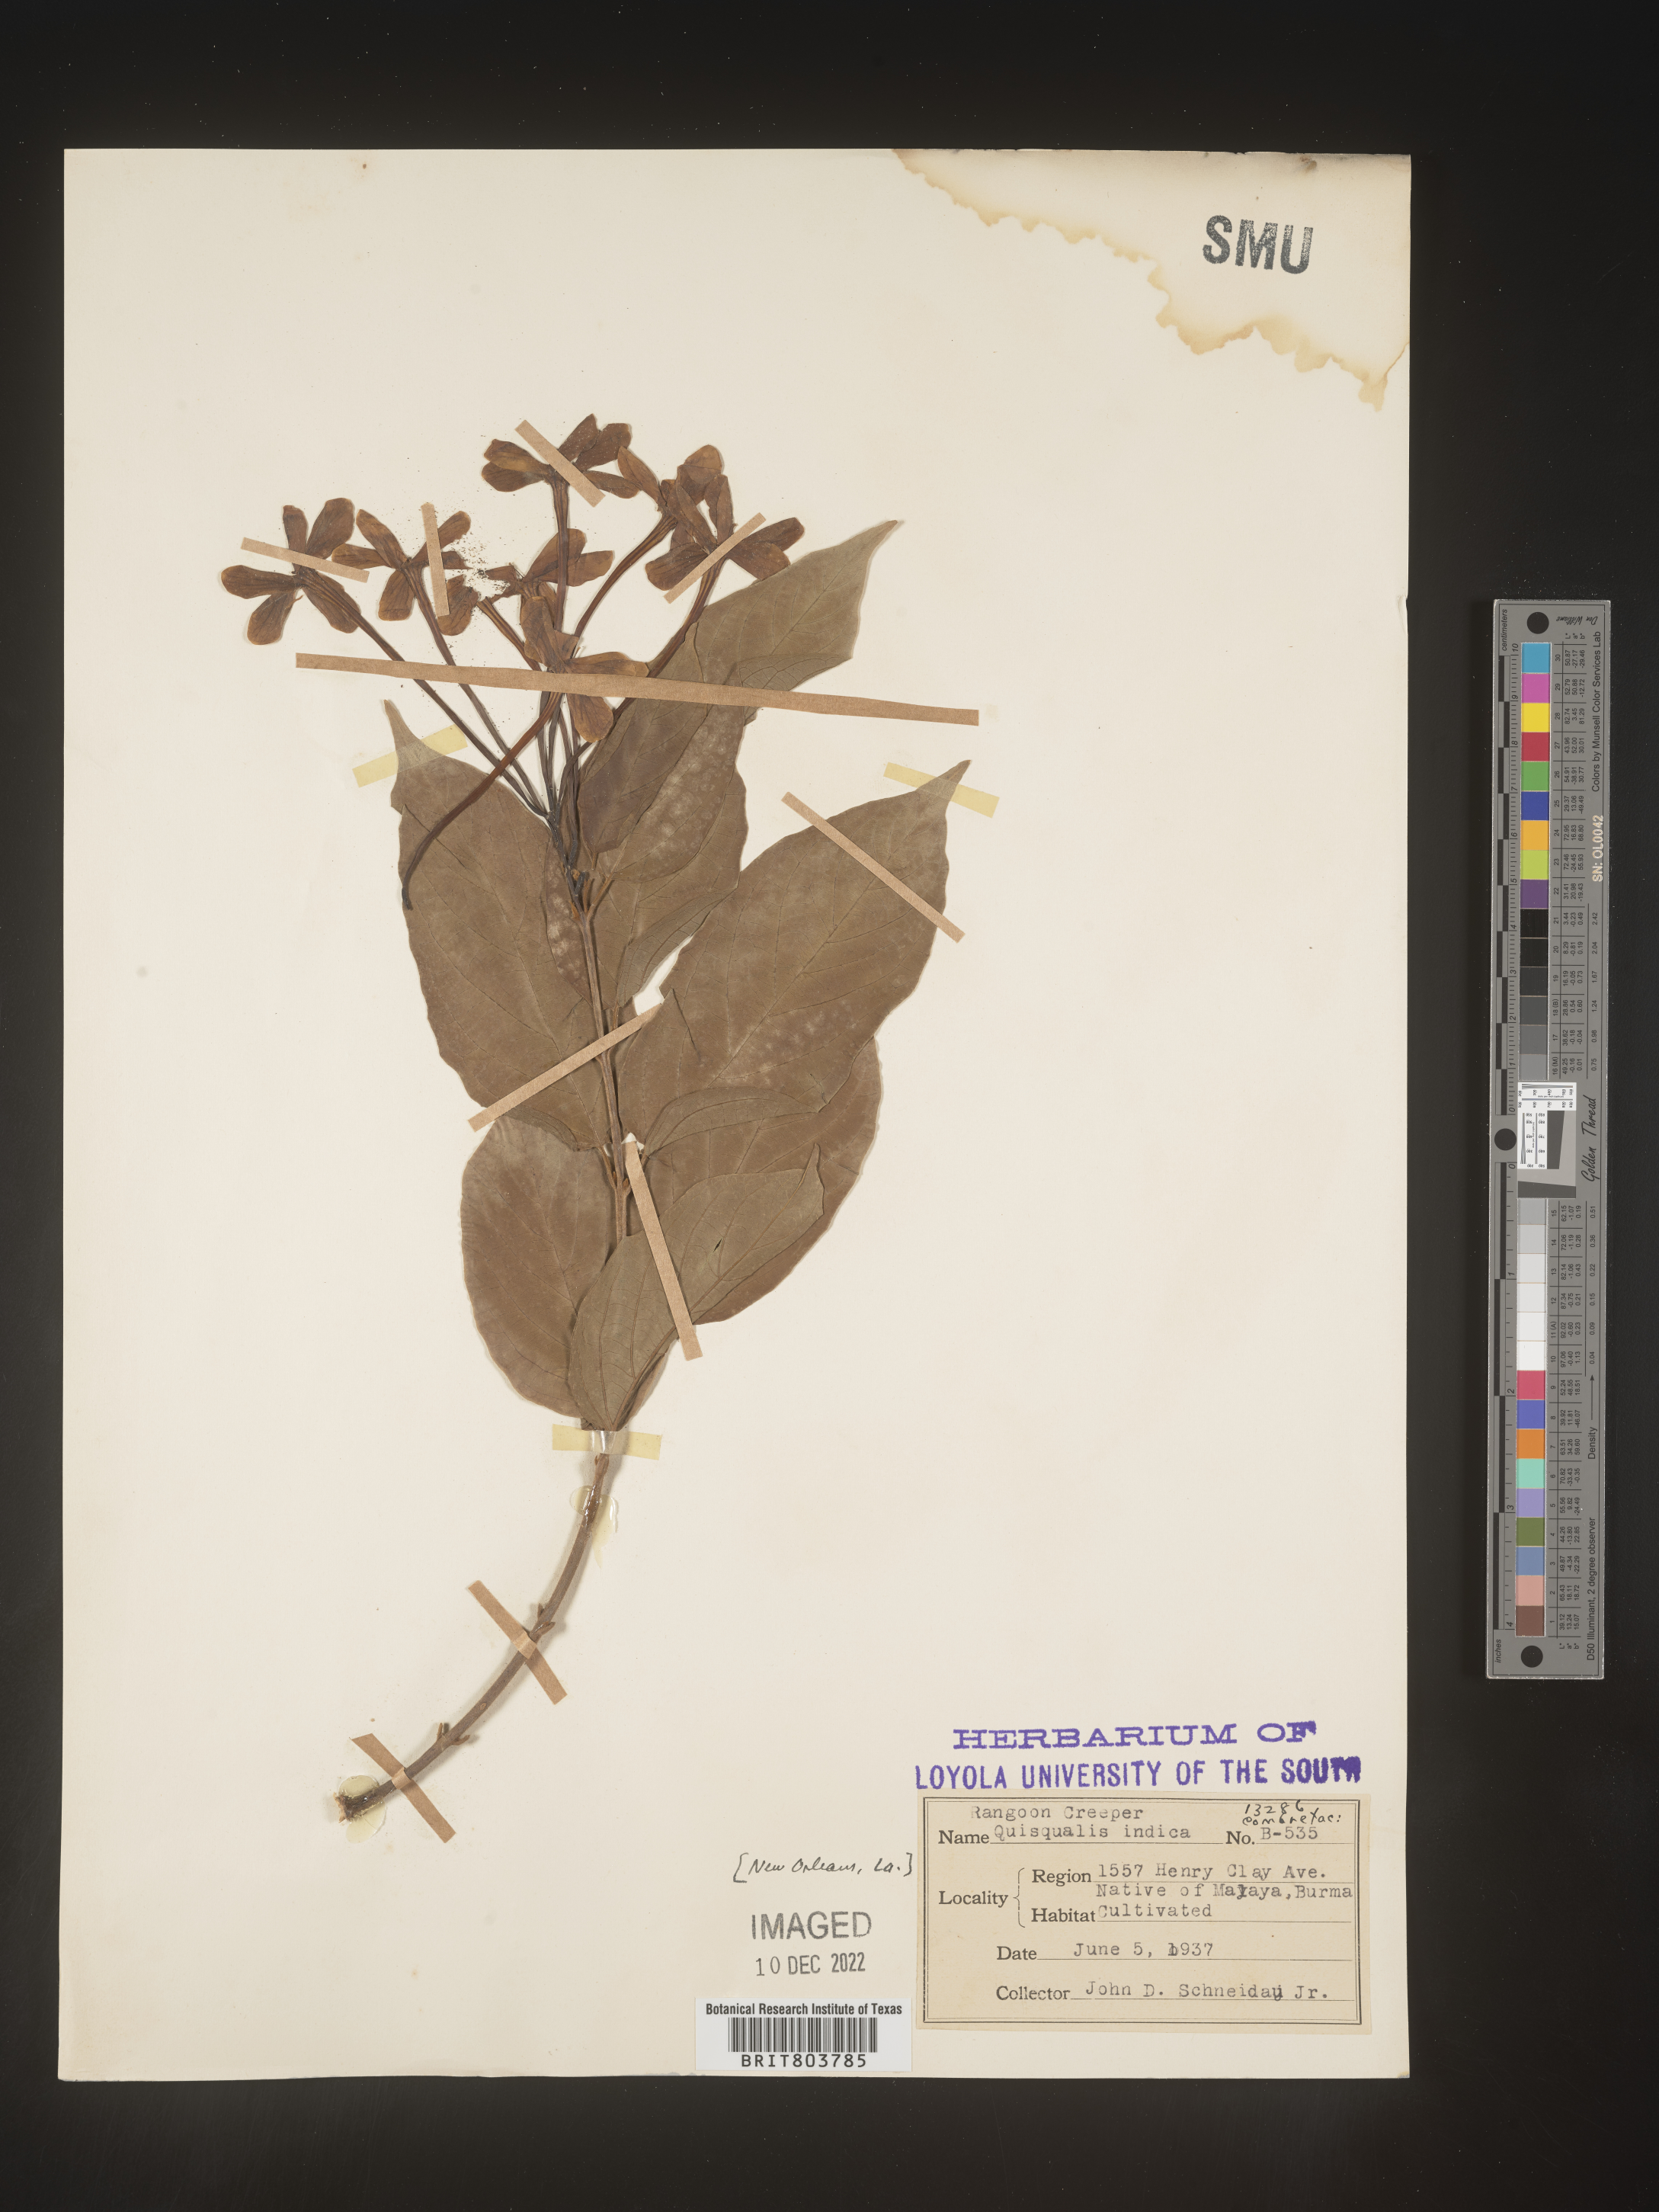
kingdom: Plantae
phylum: Tracheophyta
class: Magnoliopsida
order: Myrtales
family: Combretaceae
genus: Combretum
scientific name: Combretum
